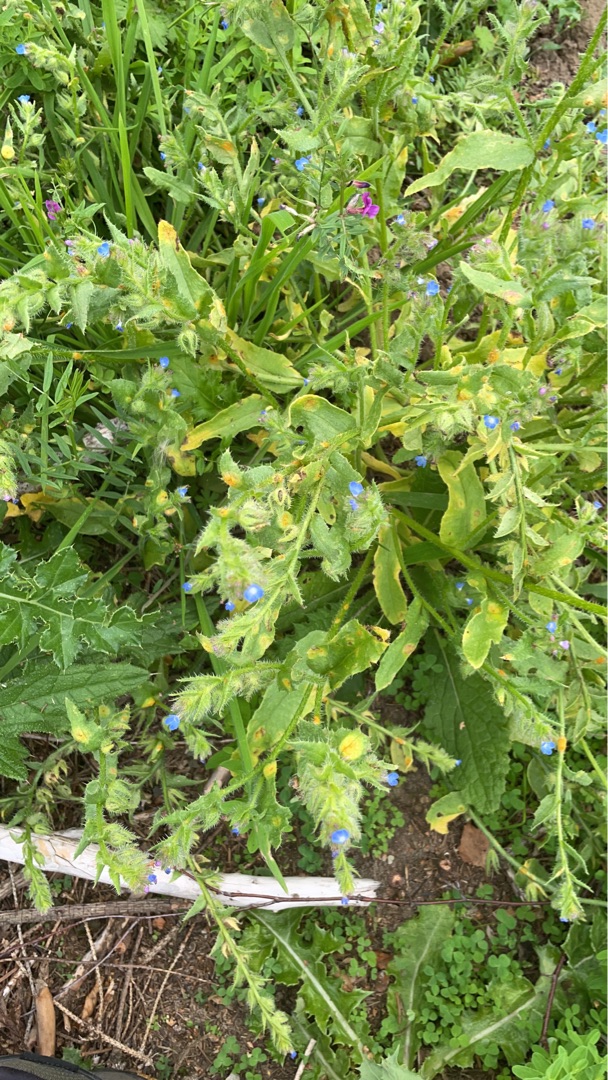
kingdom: Plantae
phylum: Tracheophyta
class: Magnoliopsida
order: Boraginales
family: Boraginaceae
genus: Lycopsis
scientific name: Lycopsis arvensis
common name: Krumhals
